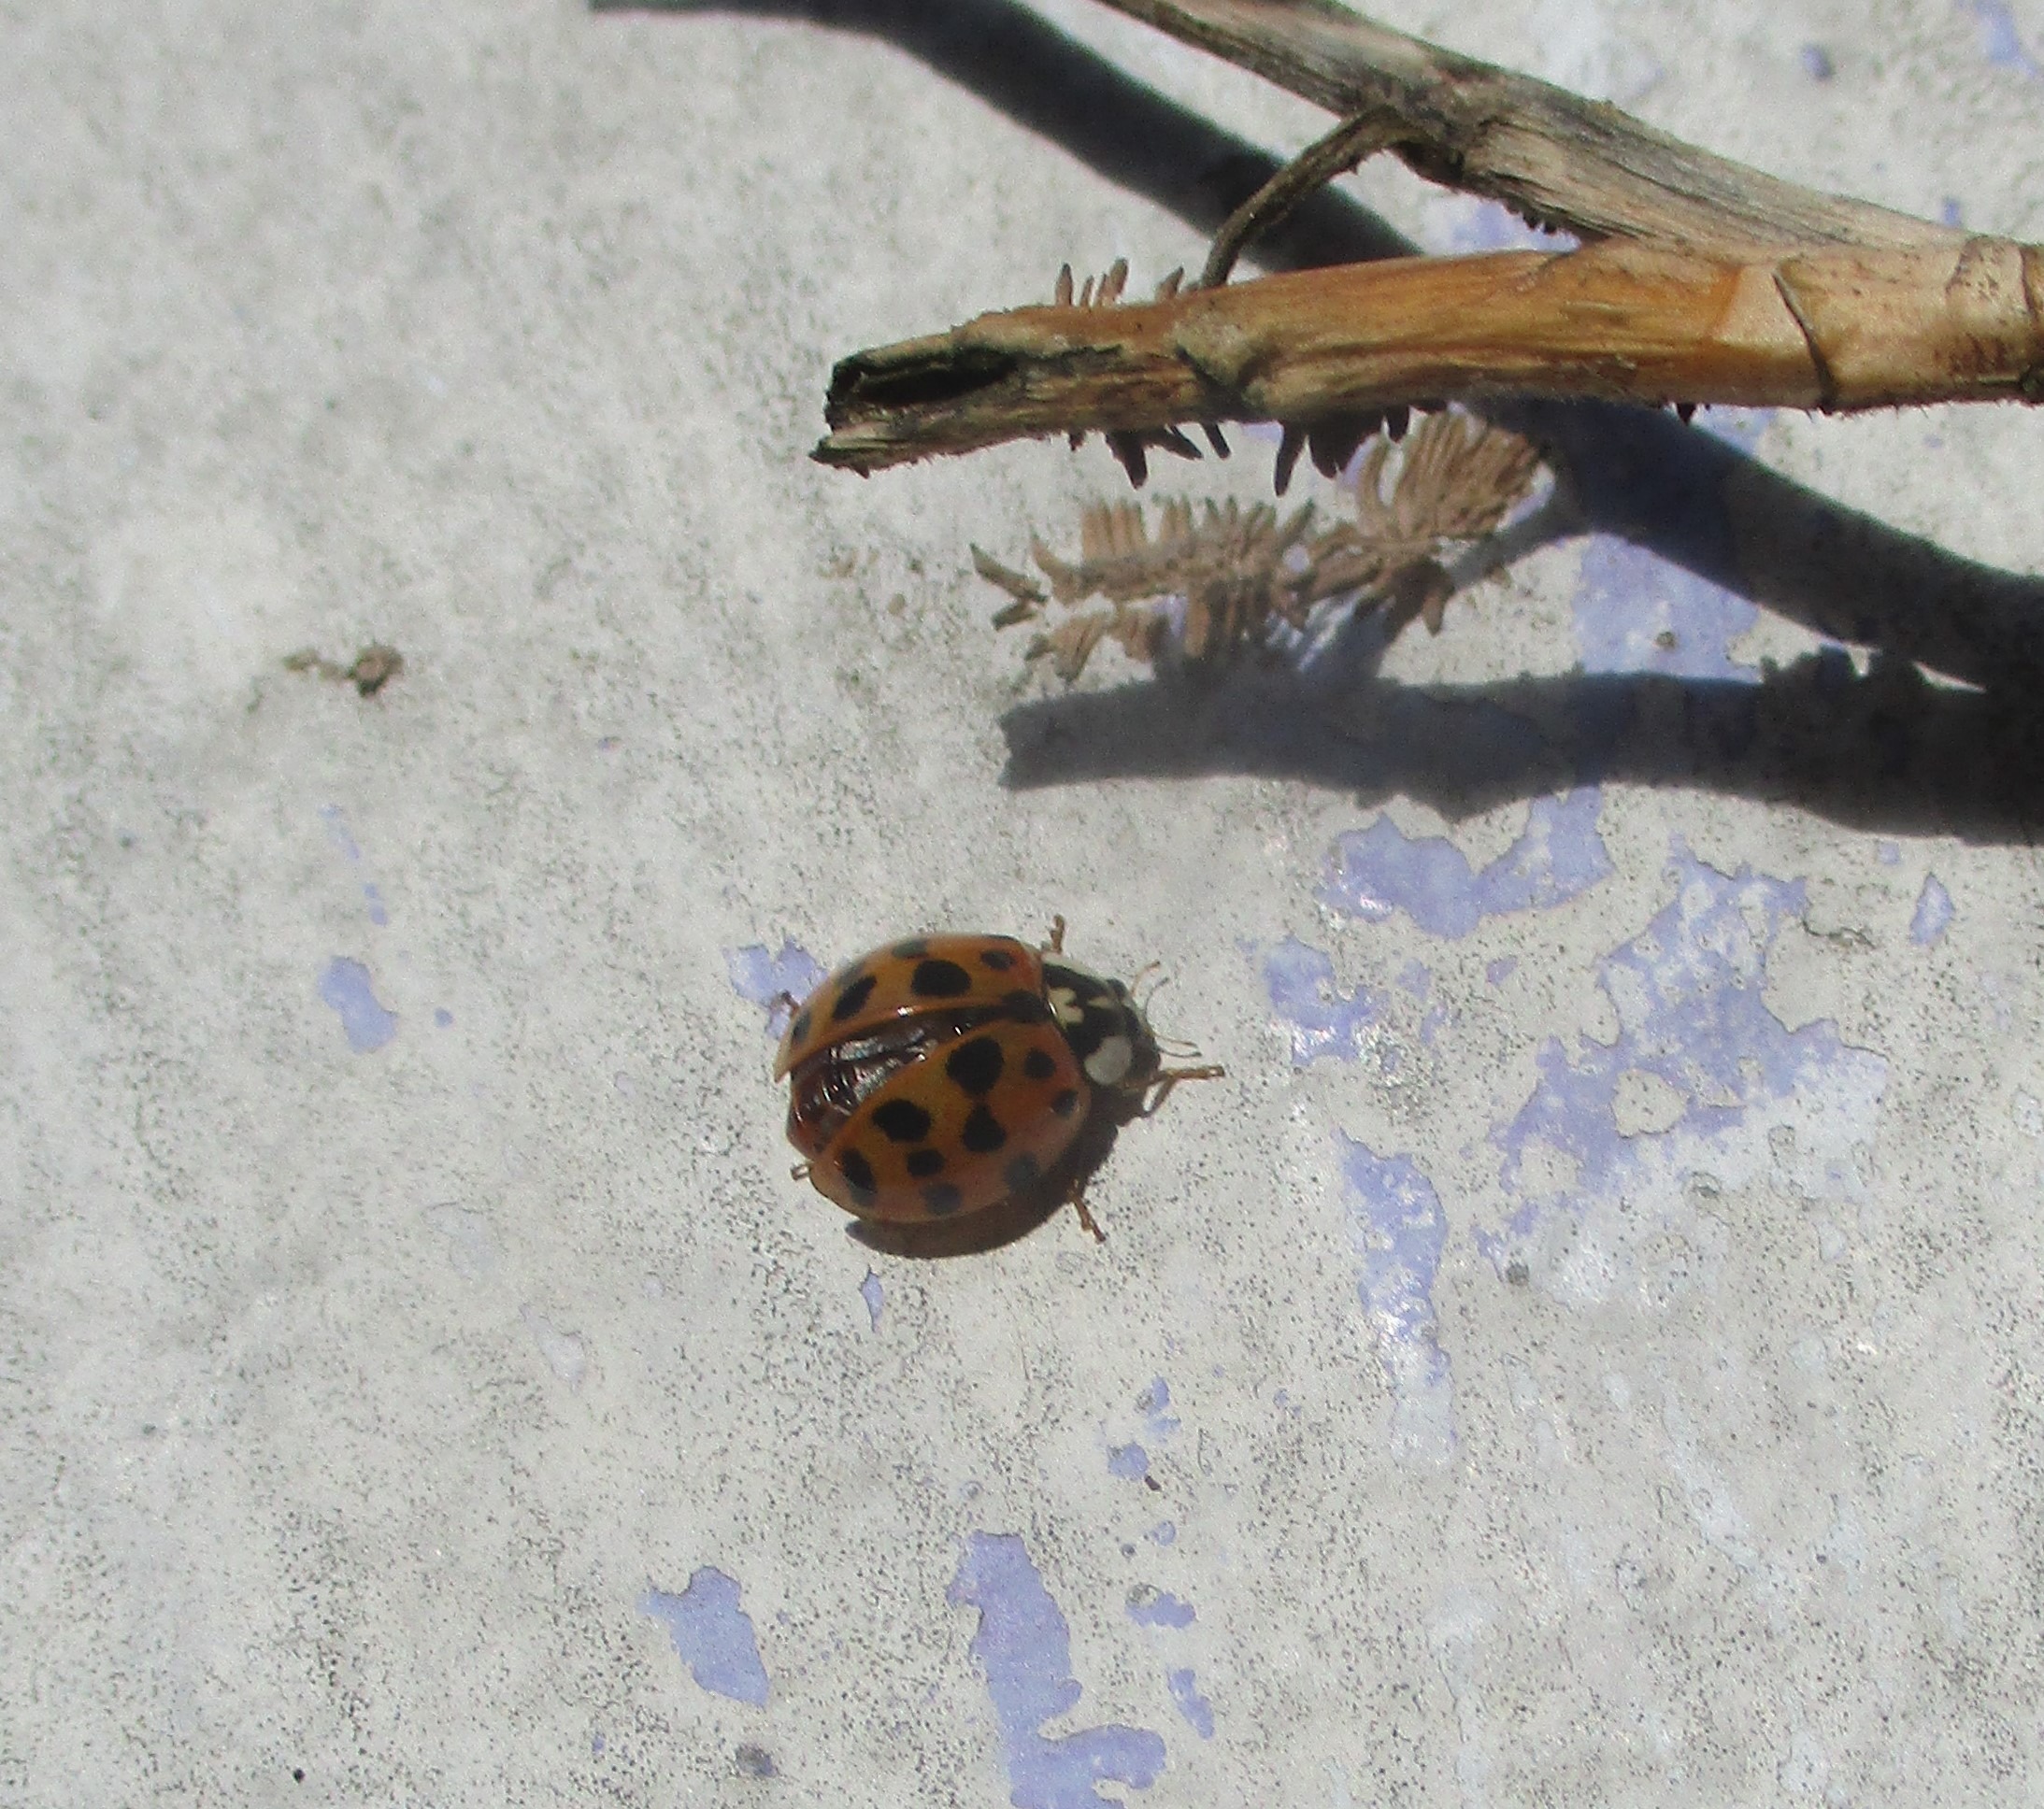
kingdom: Animalia
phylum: Arthropoda
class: Insecta
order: Coleoptera
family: Coccinellidae
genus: Harmonia
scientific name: Harmonia axyridis
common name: Harlekinmariehøne
